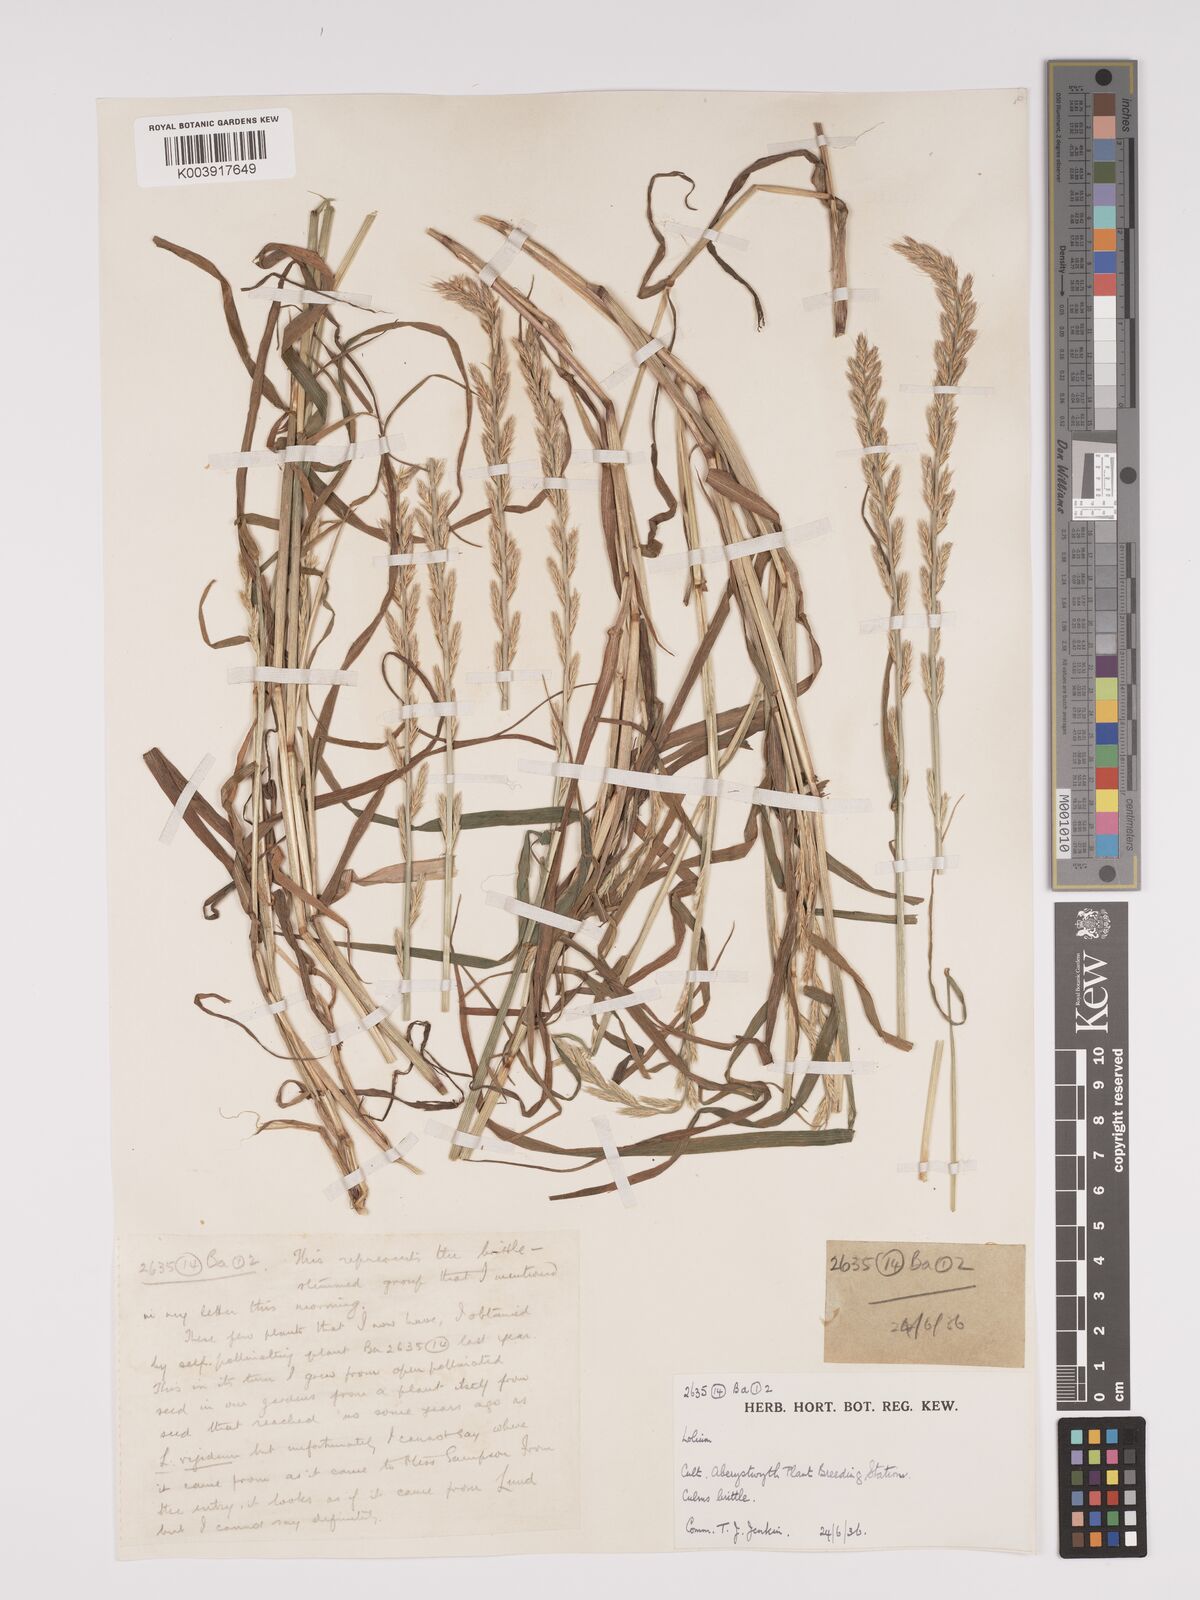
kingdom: Plantae
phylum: Tracheophyta
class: Liliopsida
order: Poales
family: Poaceae
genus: Lolium
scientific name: Lolium multiflorum
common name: Annual ryegrass
